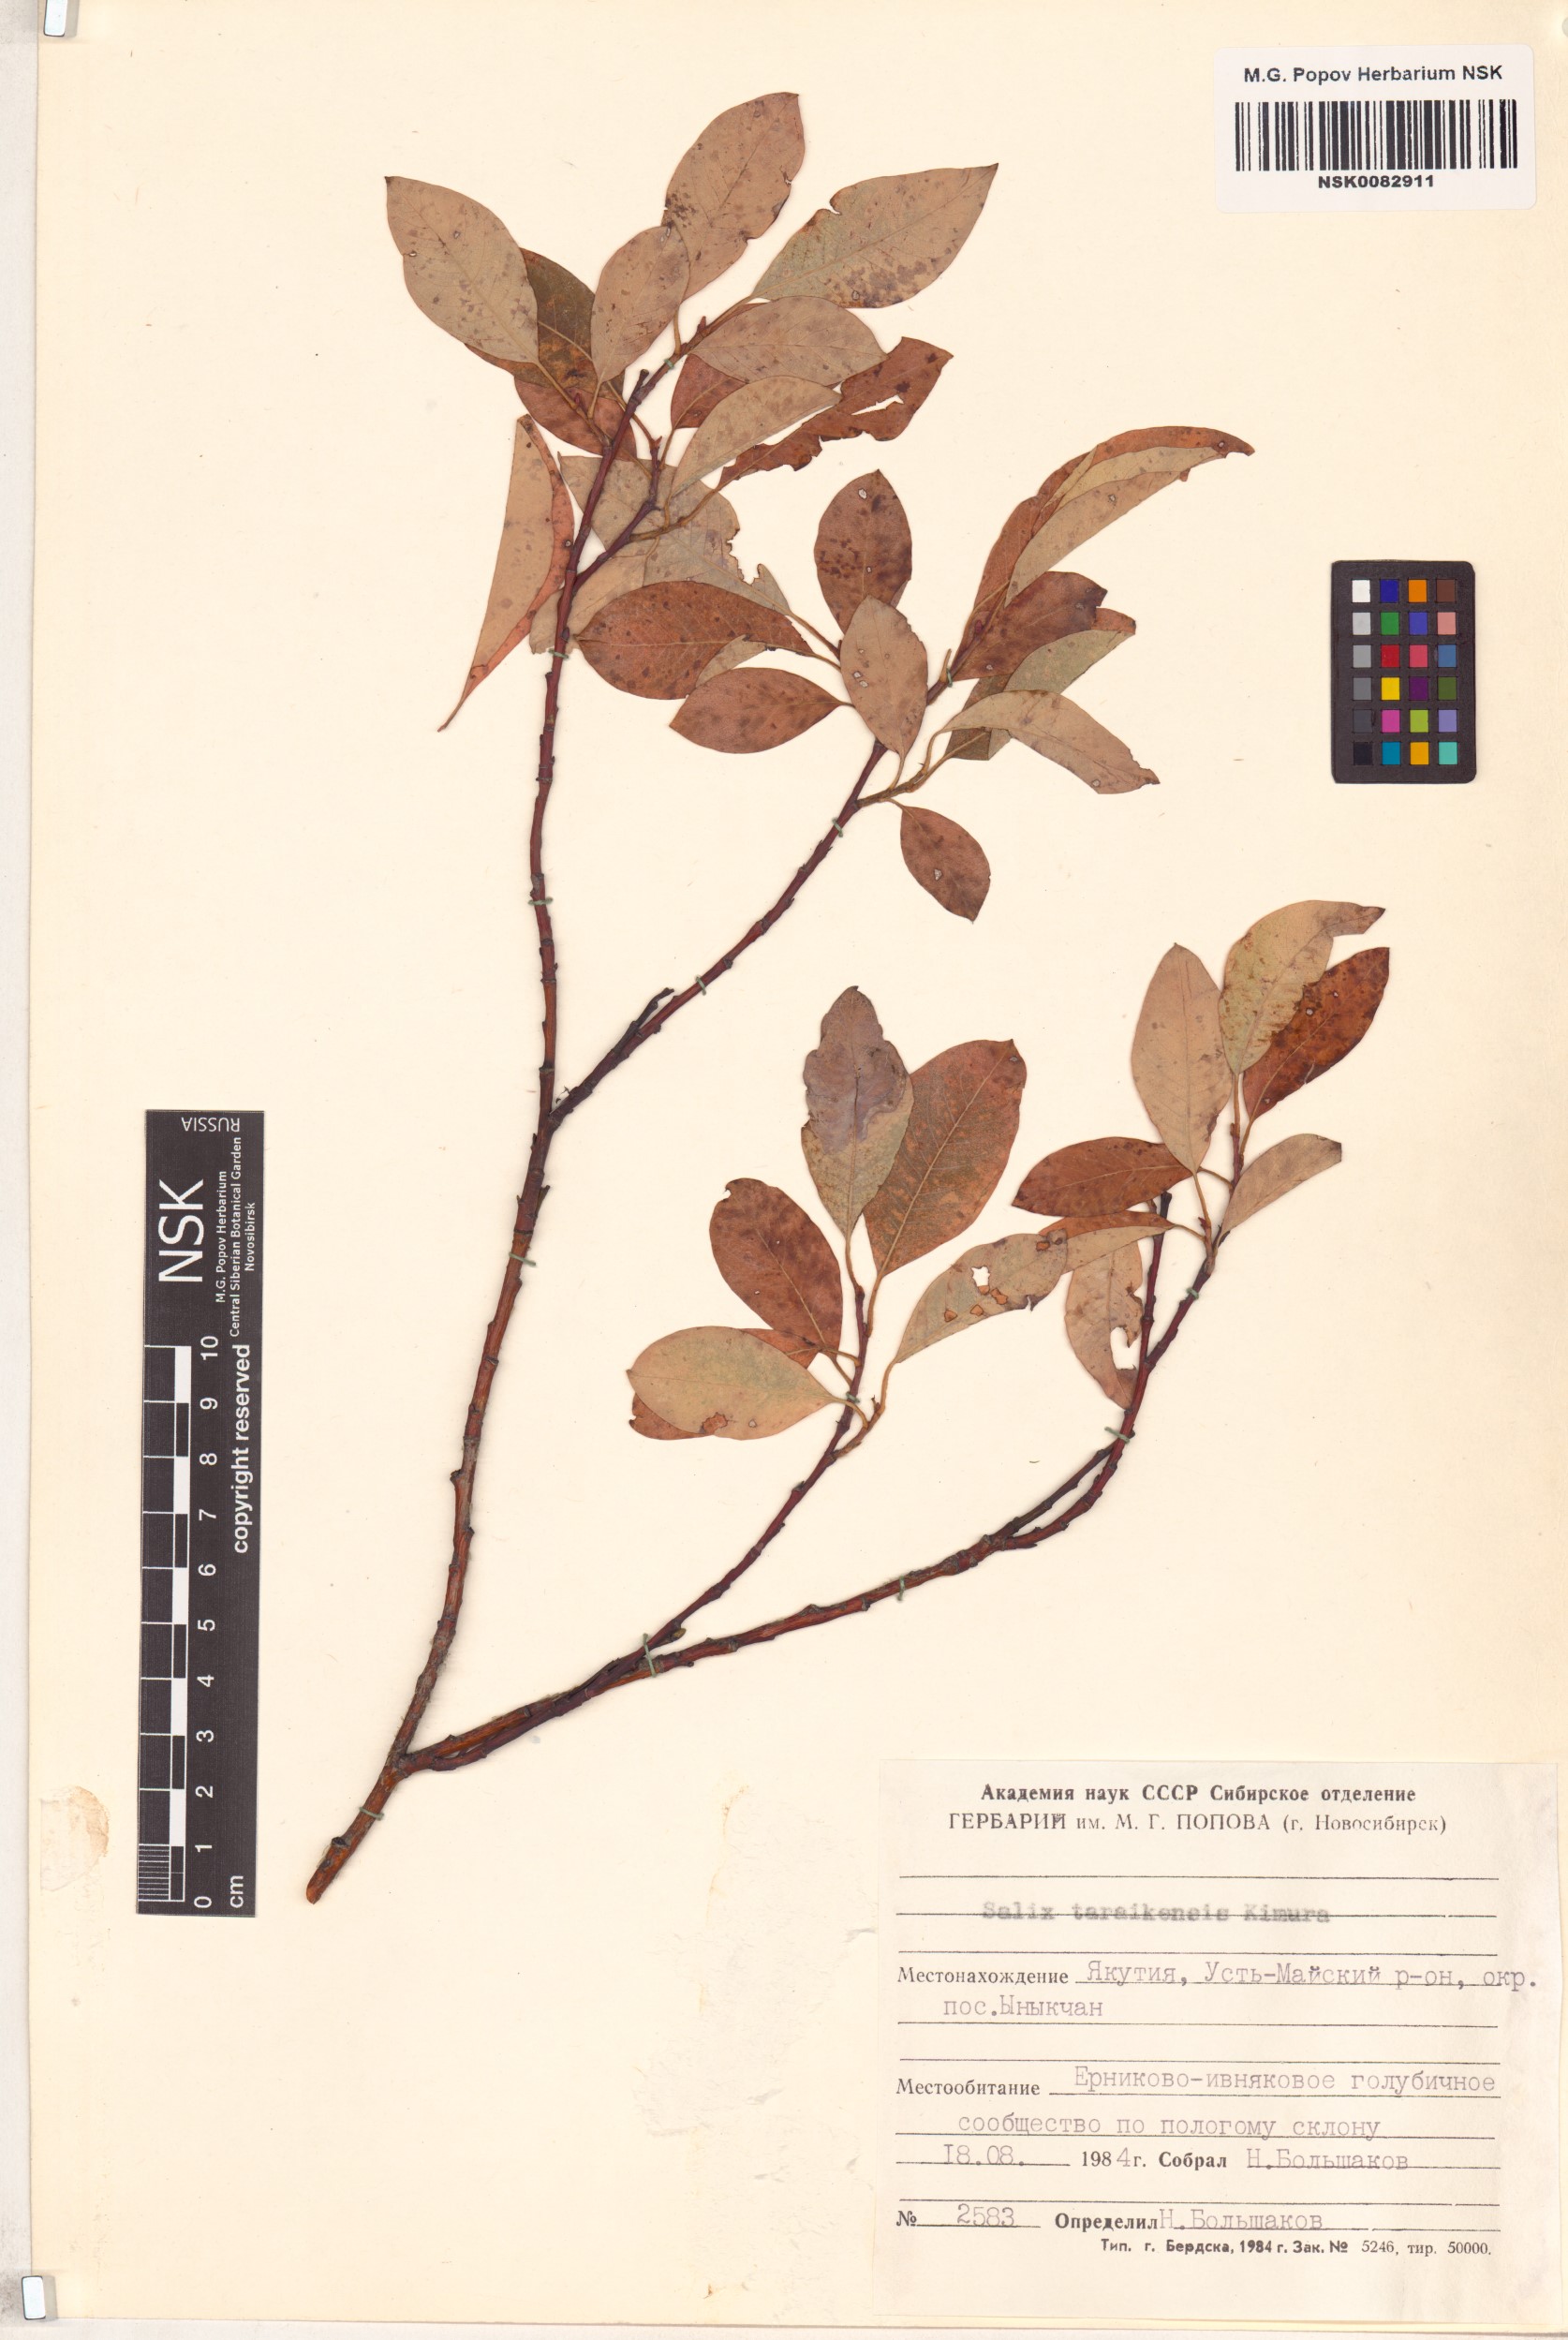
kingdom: Plantae
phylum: Tracheophyta
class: Magnoliopsida
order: Malpighiales
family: Salicaceae
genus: Salix
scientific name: Salix taraikensis
